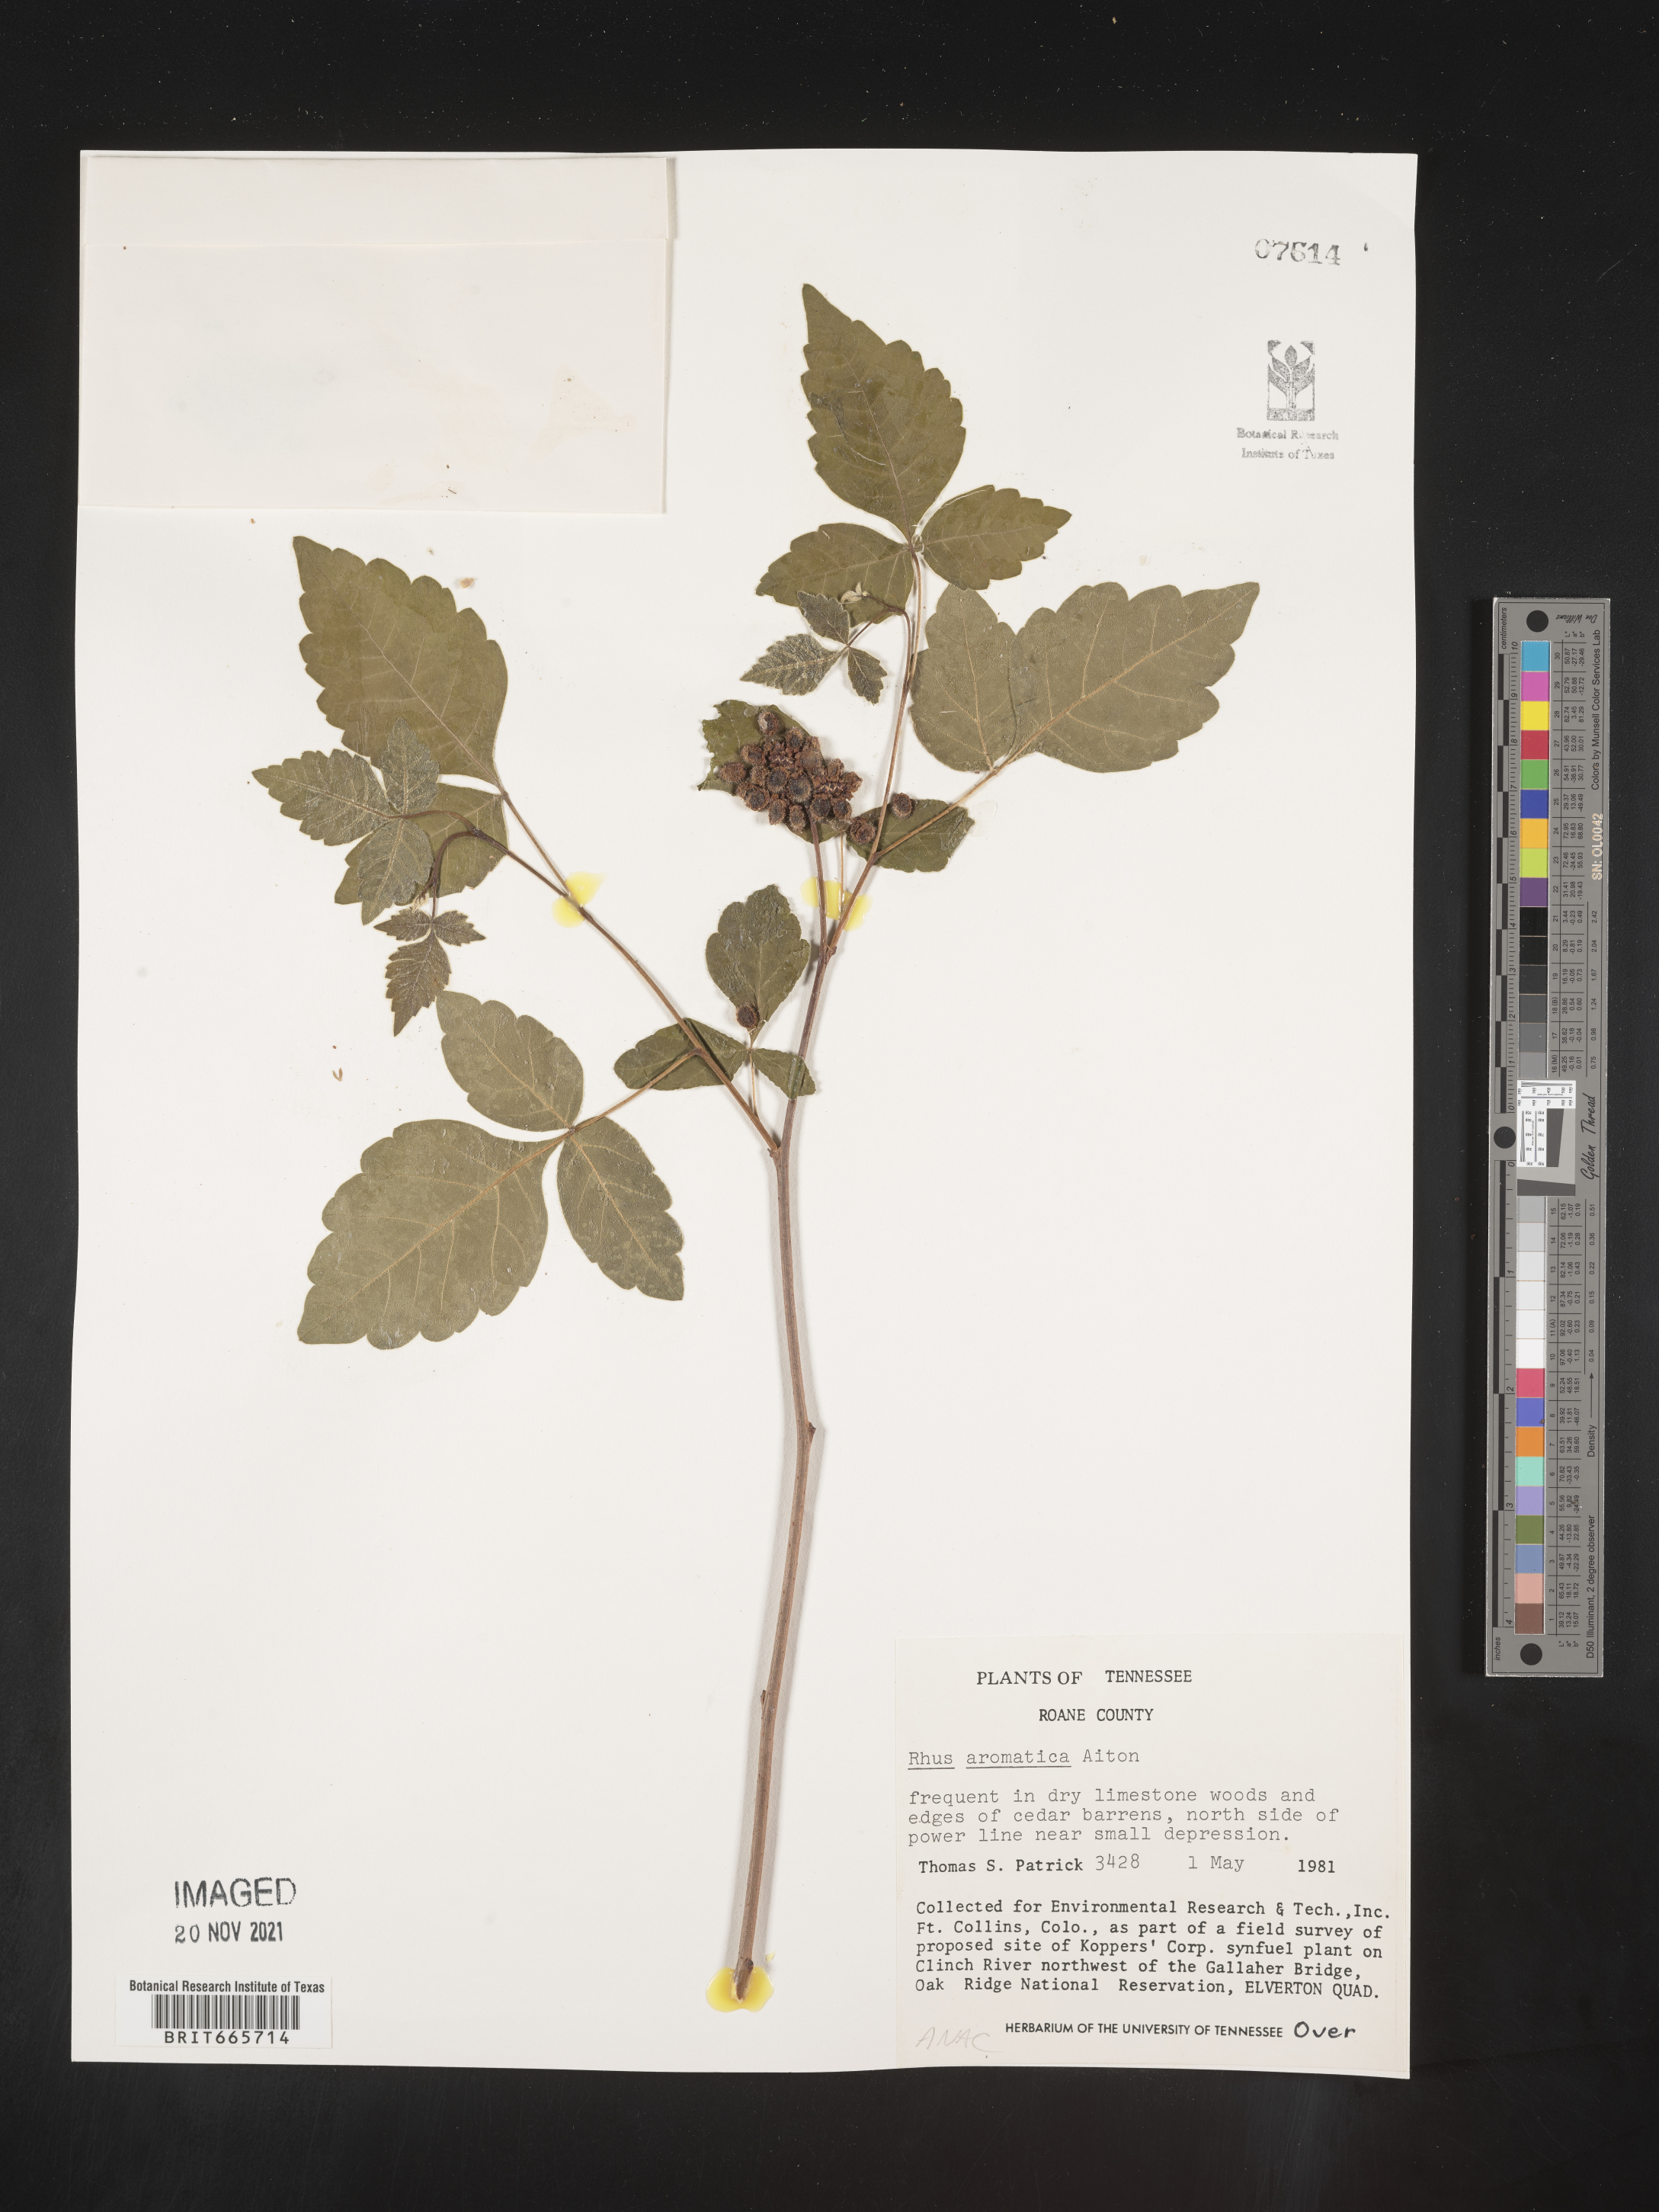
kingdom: Plantae
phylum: Tracheophyta
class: Magnoliopsida
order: Sapindales
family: Anacardiaceae
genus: Rhus
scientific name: Rhus aromatica
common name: Aromatic sumac
